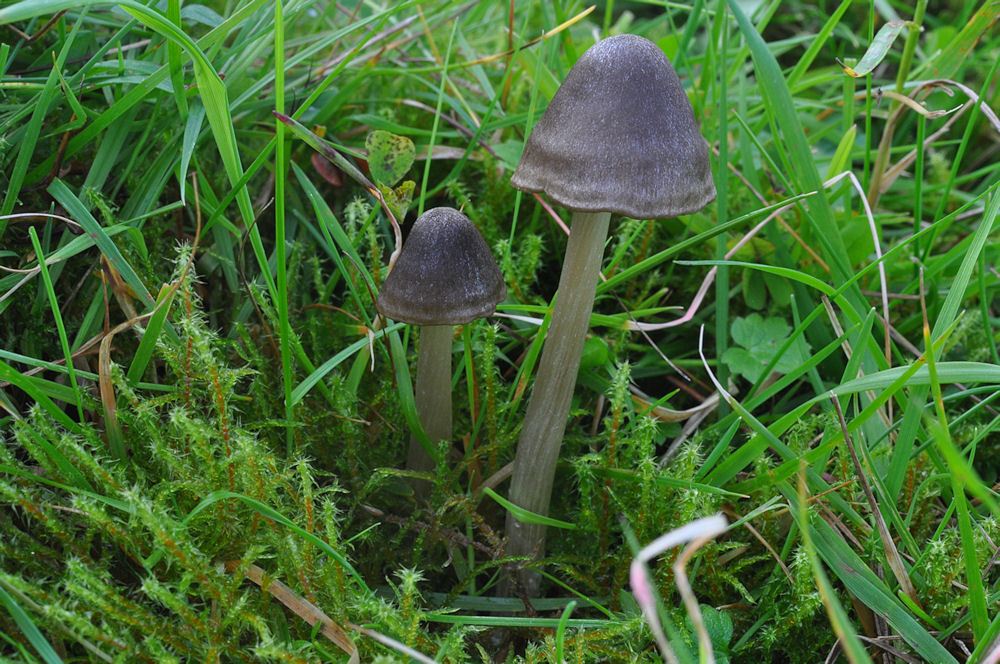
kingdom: Fungi
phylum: Basidiomycota
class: Agaricomycetes
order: Agaricales
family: Entolomataceae
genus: Entoloma
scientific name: Entoloma conferendum
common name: stjernesporet rødblad
